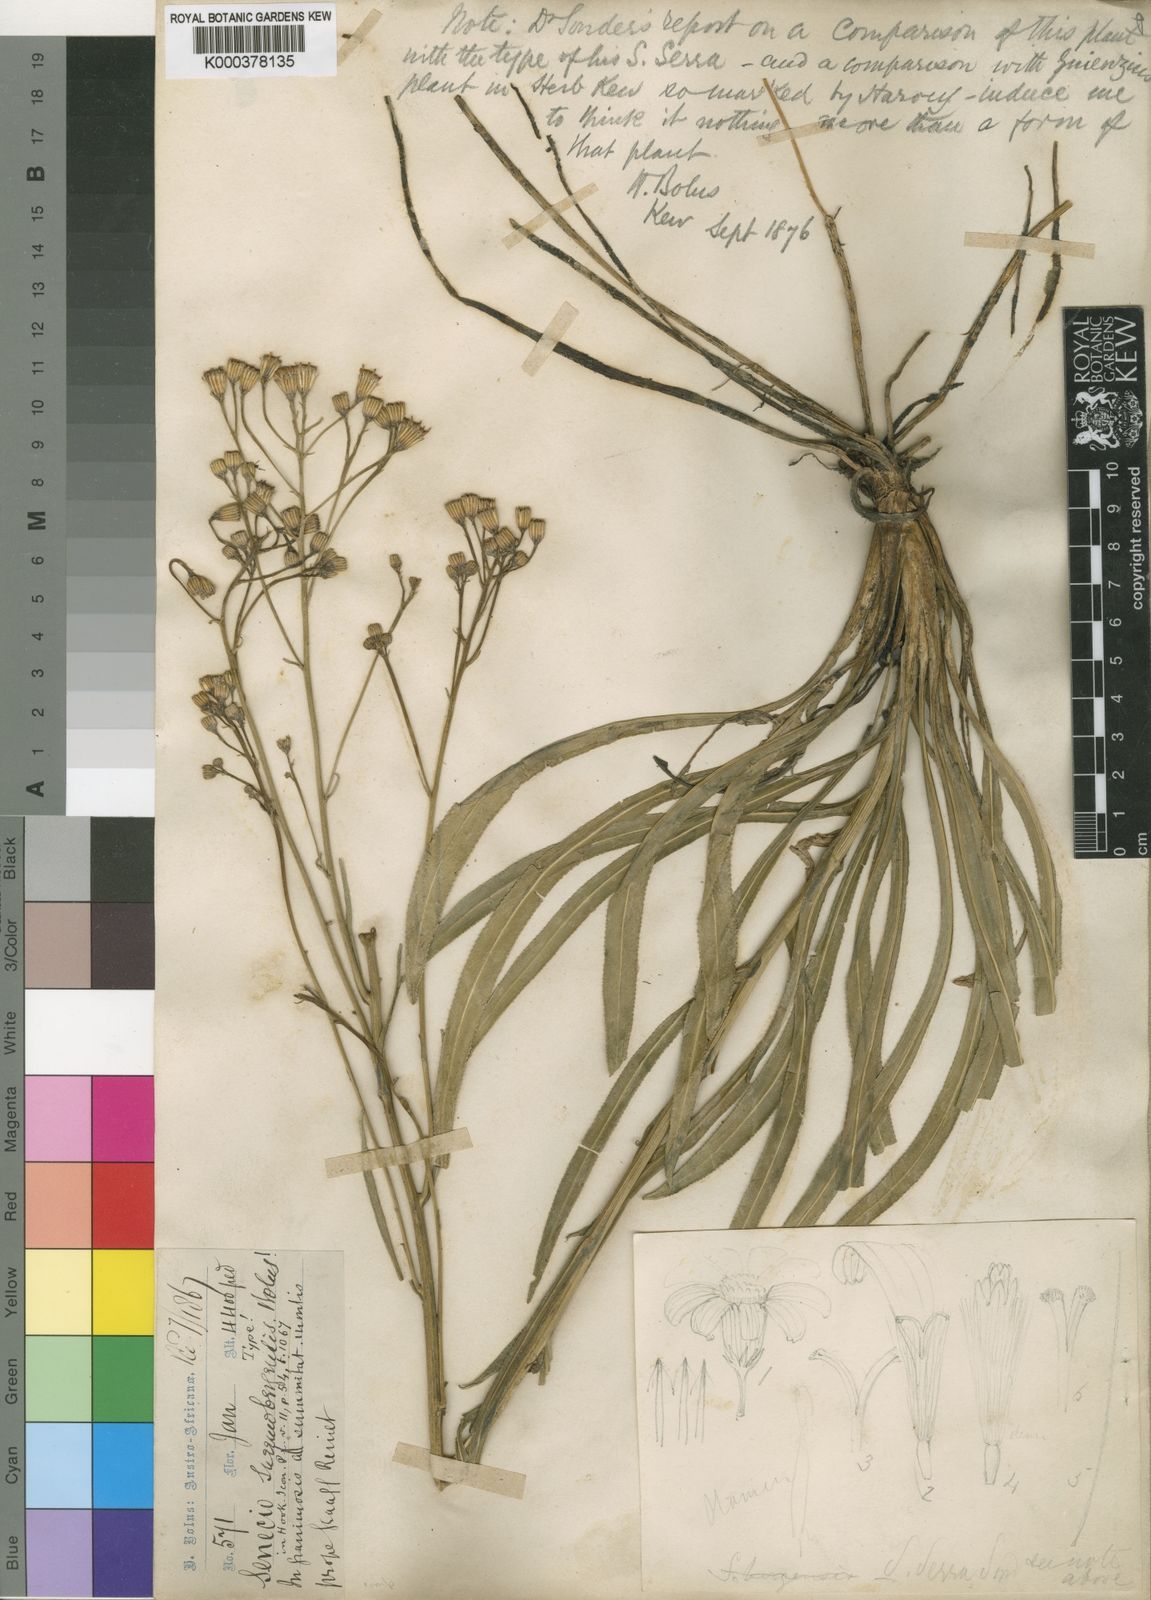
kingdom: Plantae
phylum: Tracheophyta
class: Magnoliopsida
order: Asterales
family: Asteraceae
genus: Senecio
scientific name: Senecio inornatus
